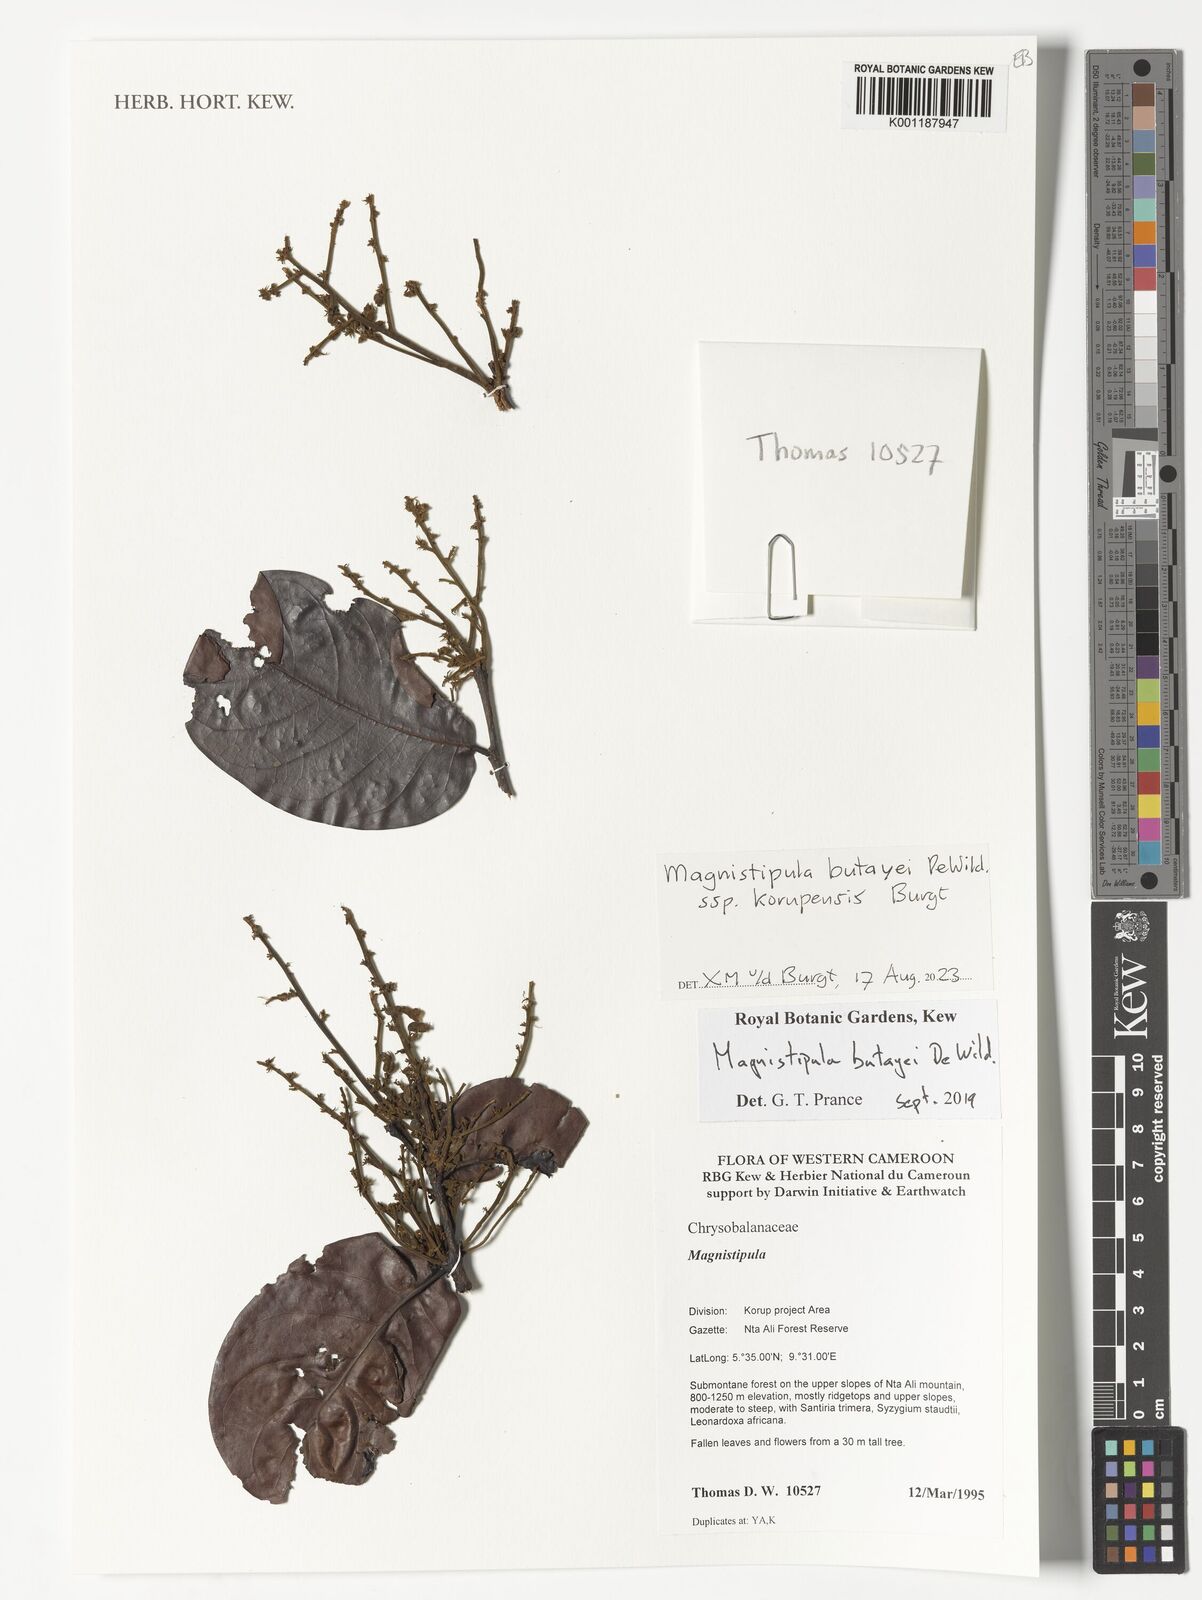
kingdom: Plantae
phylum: Tracheophyta
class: Magnoliopsida
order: Malpighiales
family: Chrysobalanaceae
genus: Magnistipula
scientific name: Magnistipula butayei
